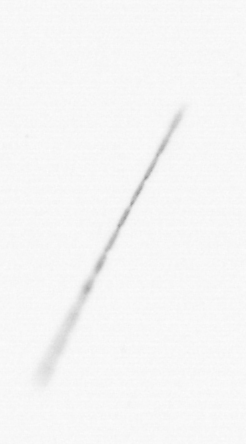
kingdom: Chromista
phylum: Ochrophyta
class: Bacillariophyceae
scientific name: Bacillariophyceae
